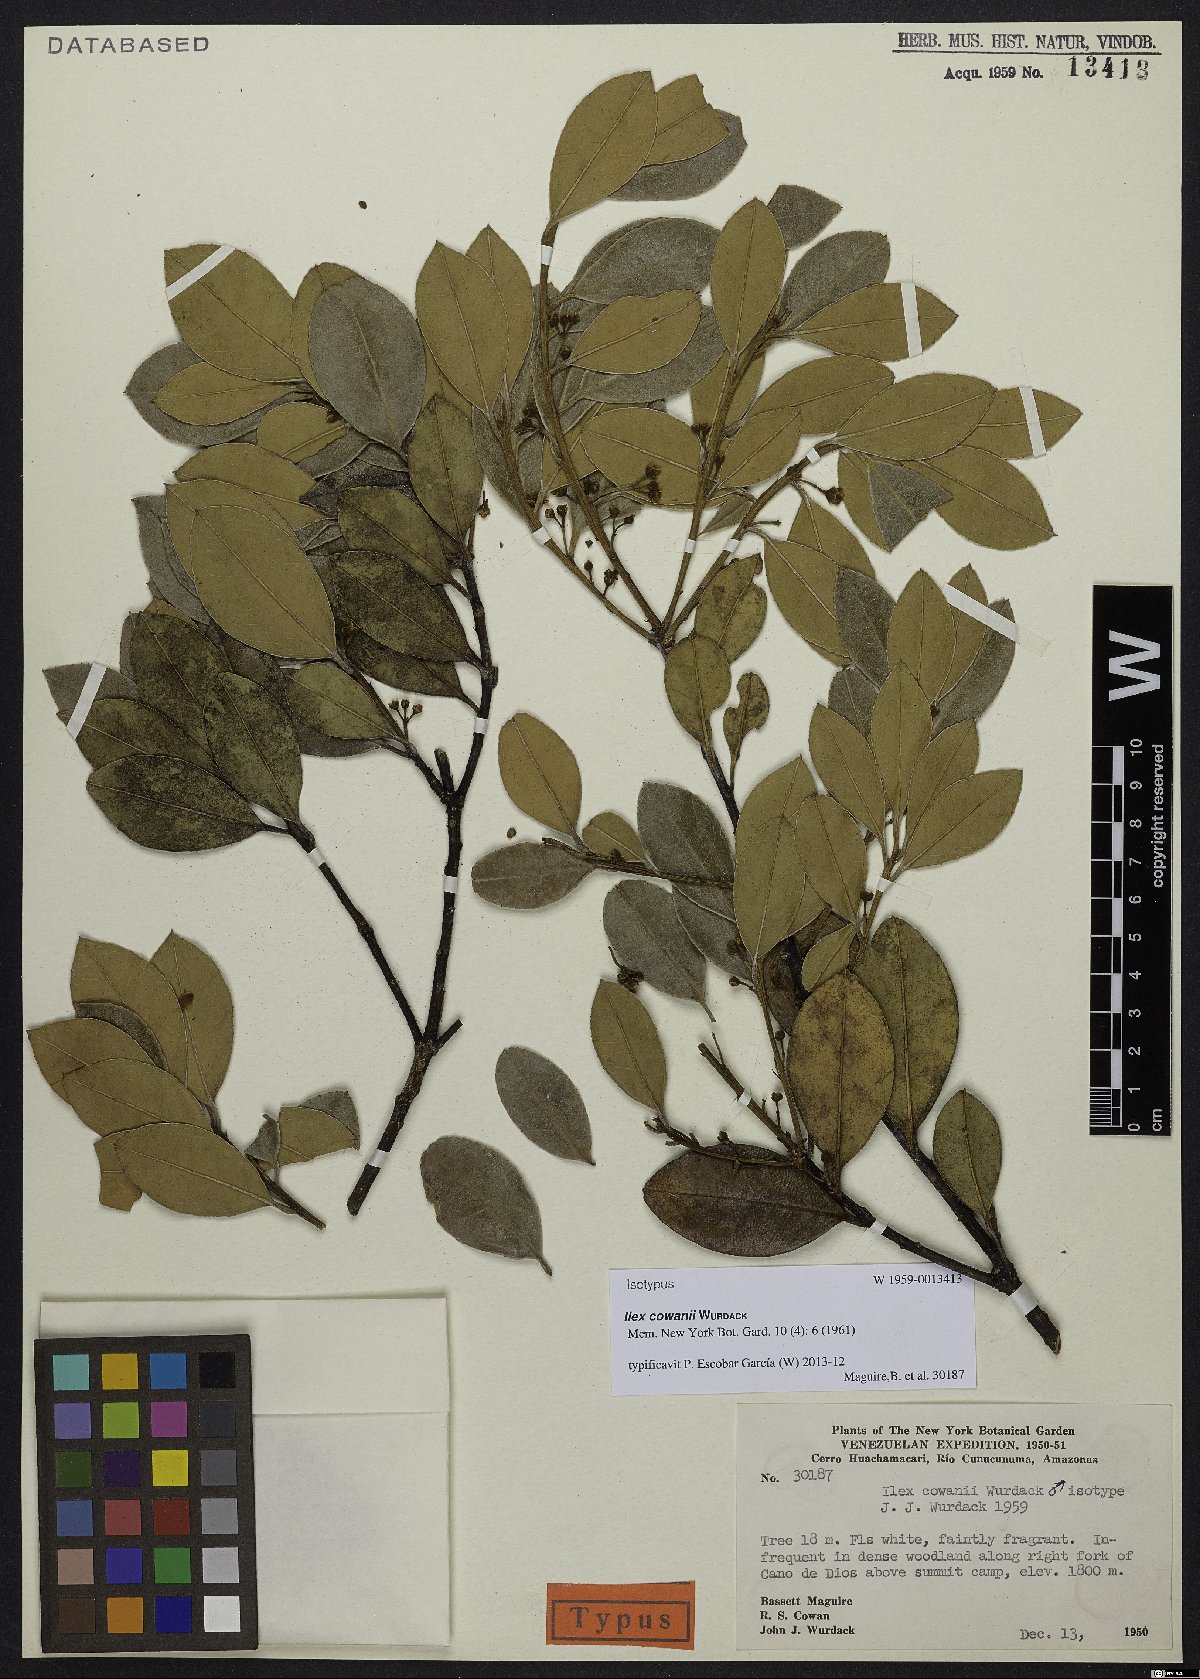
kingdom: Plantae
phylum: Tracheophyta
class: Magnoliopsida
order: Aquifoliales
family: Aquifoliaceae
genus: Ilex
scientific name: Ilex cowanii
